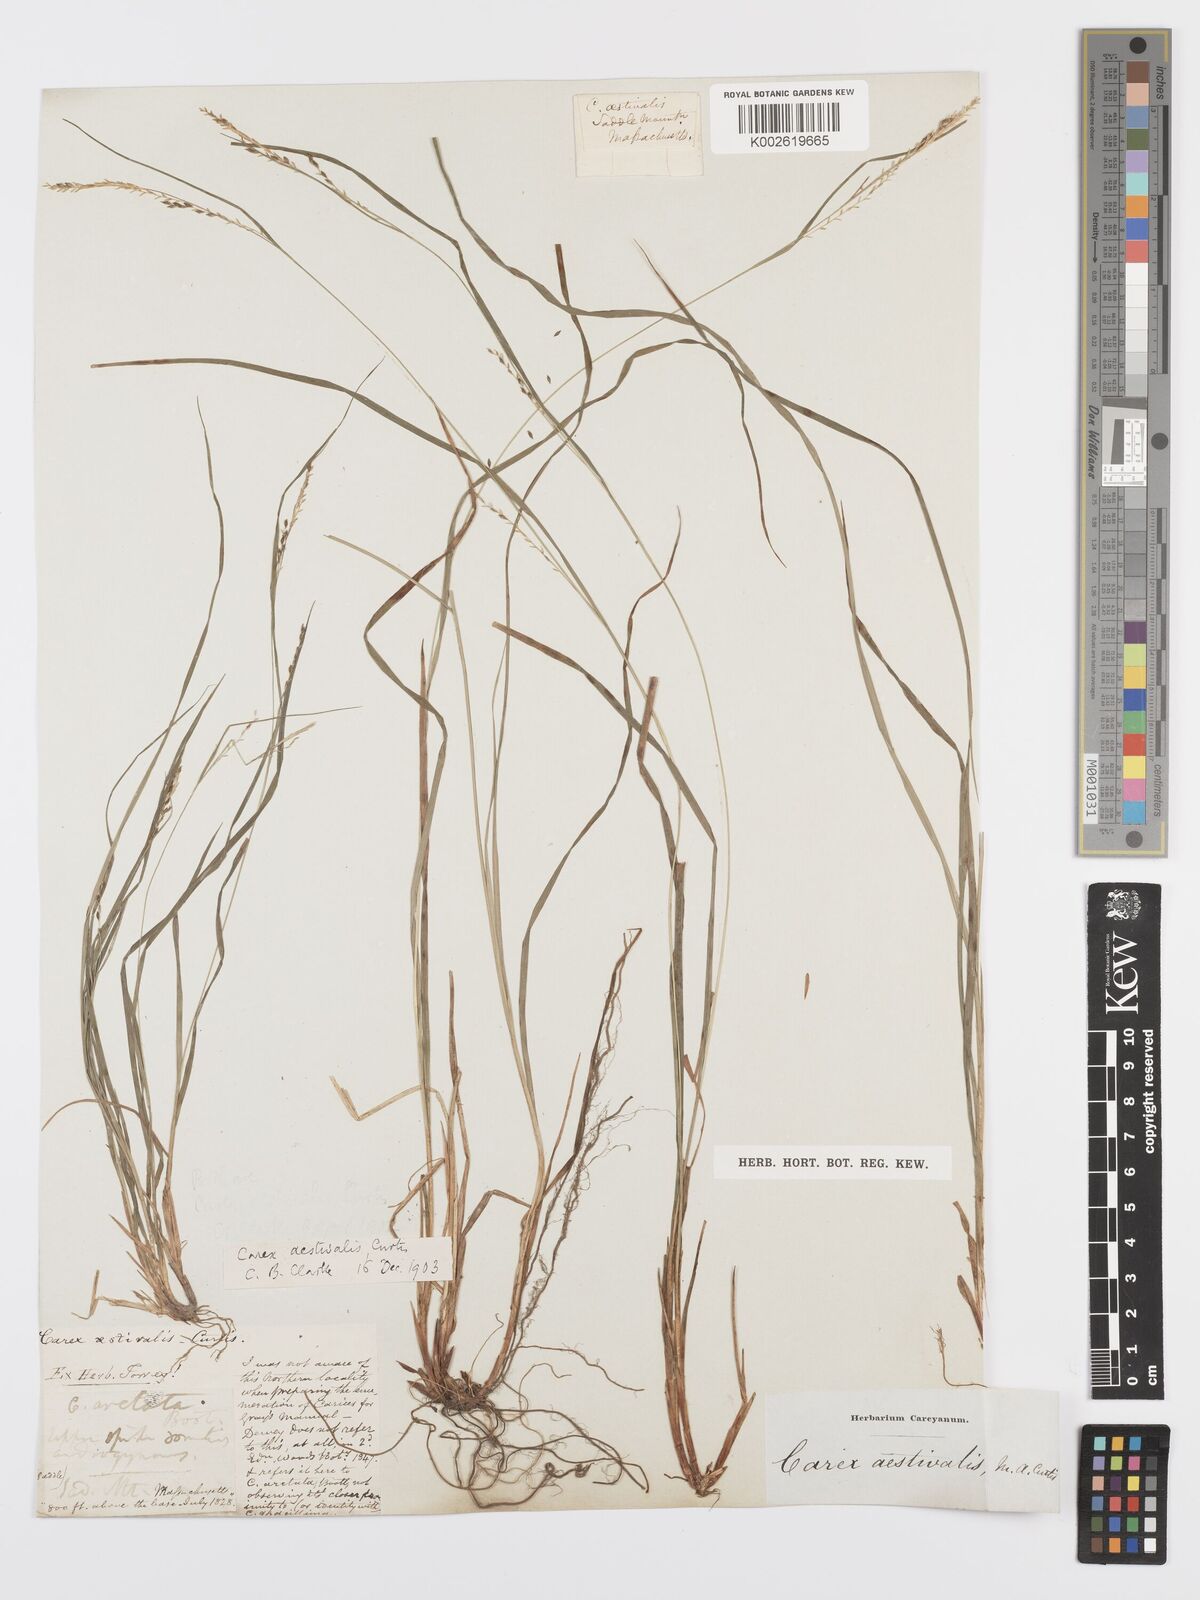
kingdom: Plantae
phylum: Tracheophyta
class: Liliopsida
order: Poales
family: Cyperaceae
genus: Carex
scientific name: Carex aestivalis
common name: Summer sedge
